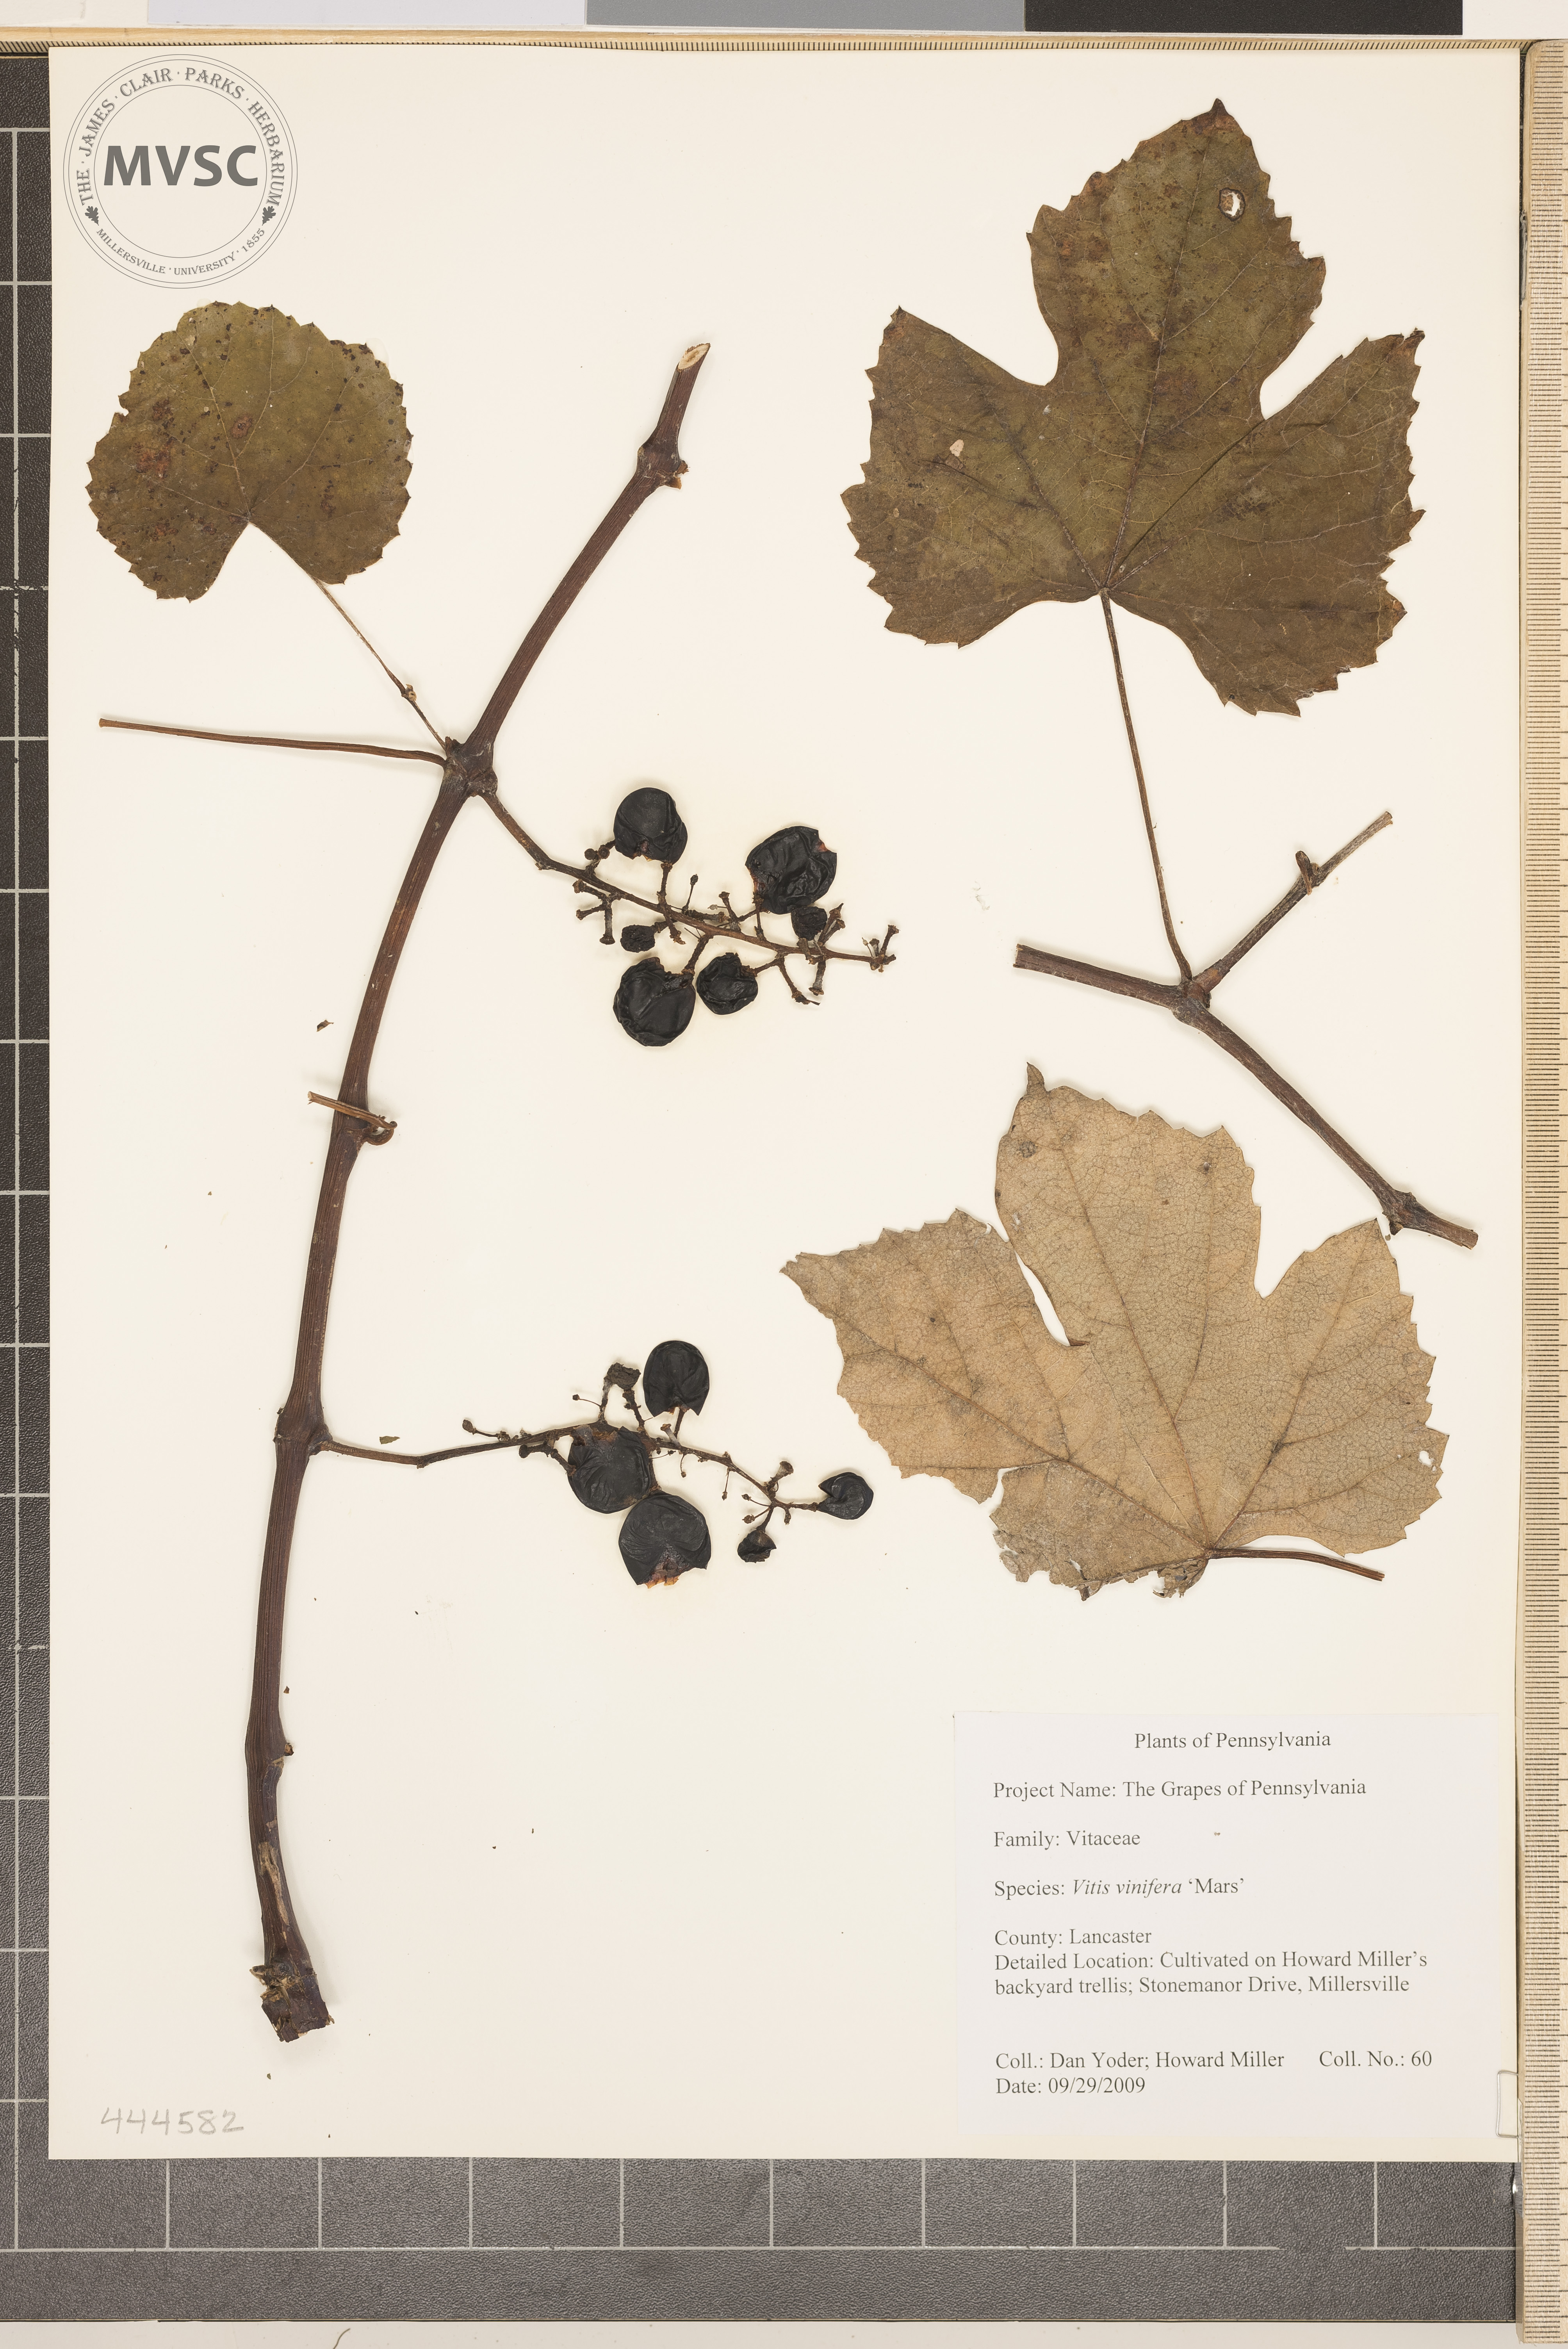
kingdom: Plantae
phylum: Tracheophyta
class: Magnoliopsida
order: Vitales
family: Vitaceae
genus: Vitis
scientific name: Vitis vinifera
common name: Grape-vine
